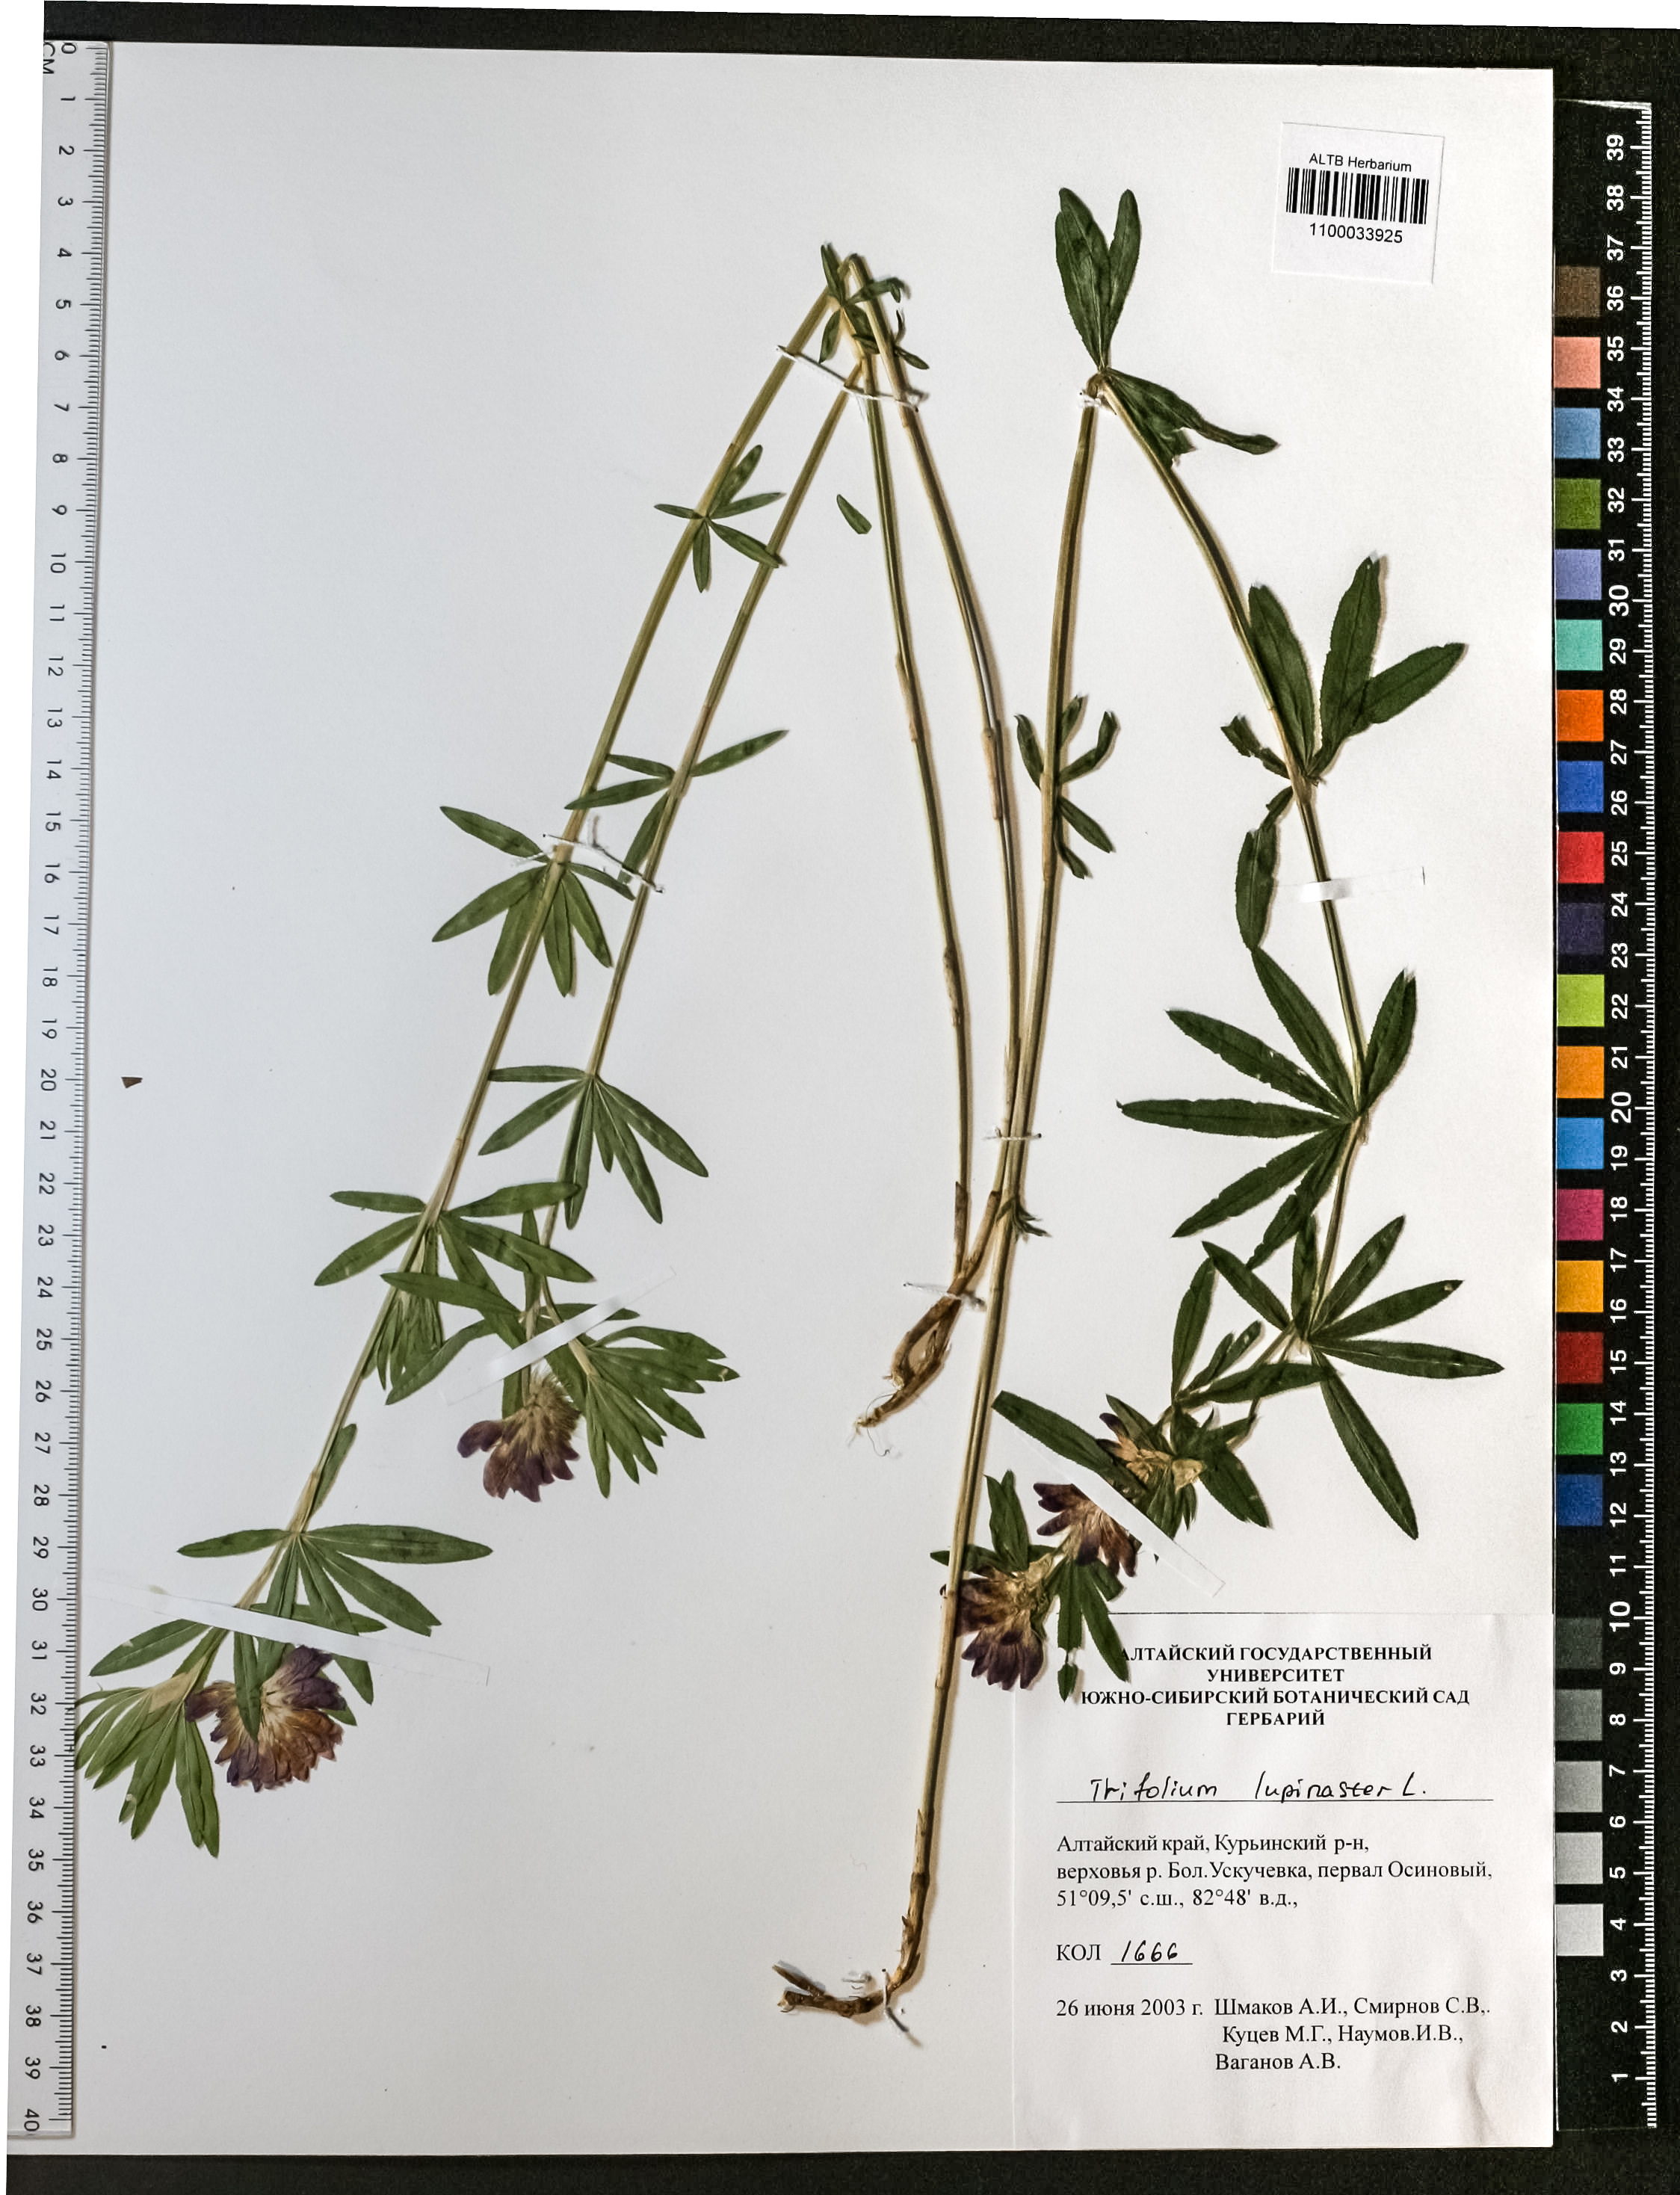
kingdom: Plantae
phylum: Tracheophyta
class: Magnoliopsida
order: Fabales
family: Fabaceae
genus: Trifolium
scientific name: Trifolium lupinaster
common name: Lupine clover
